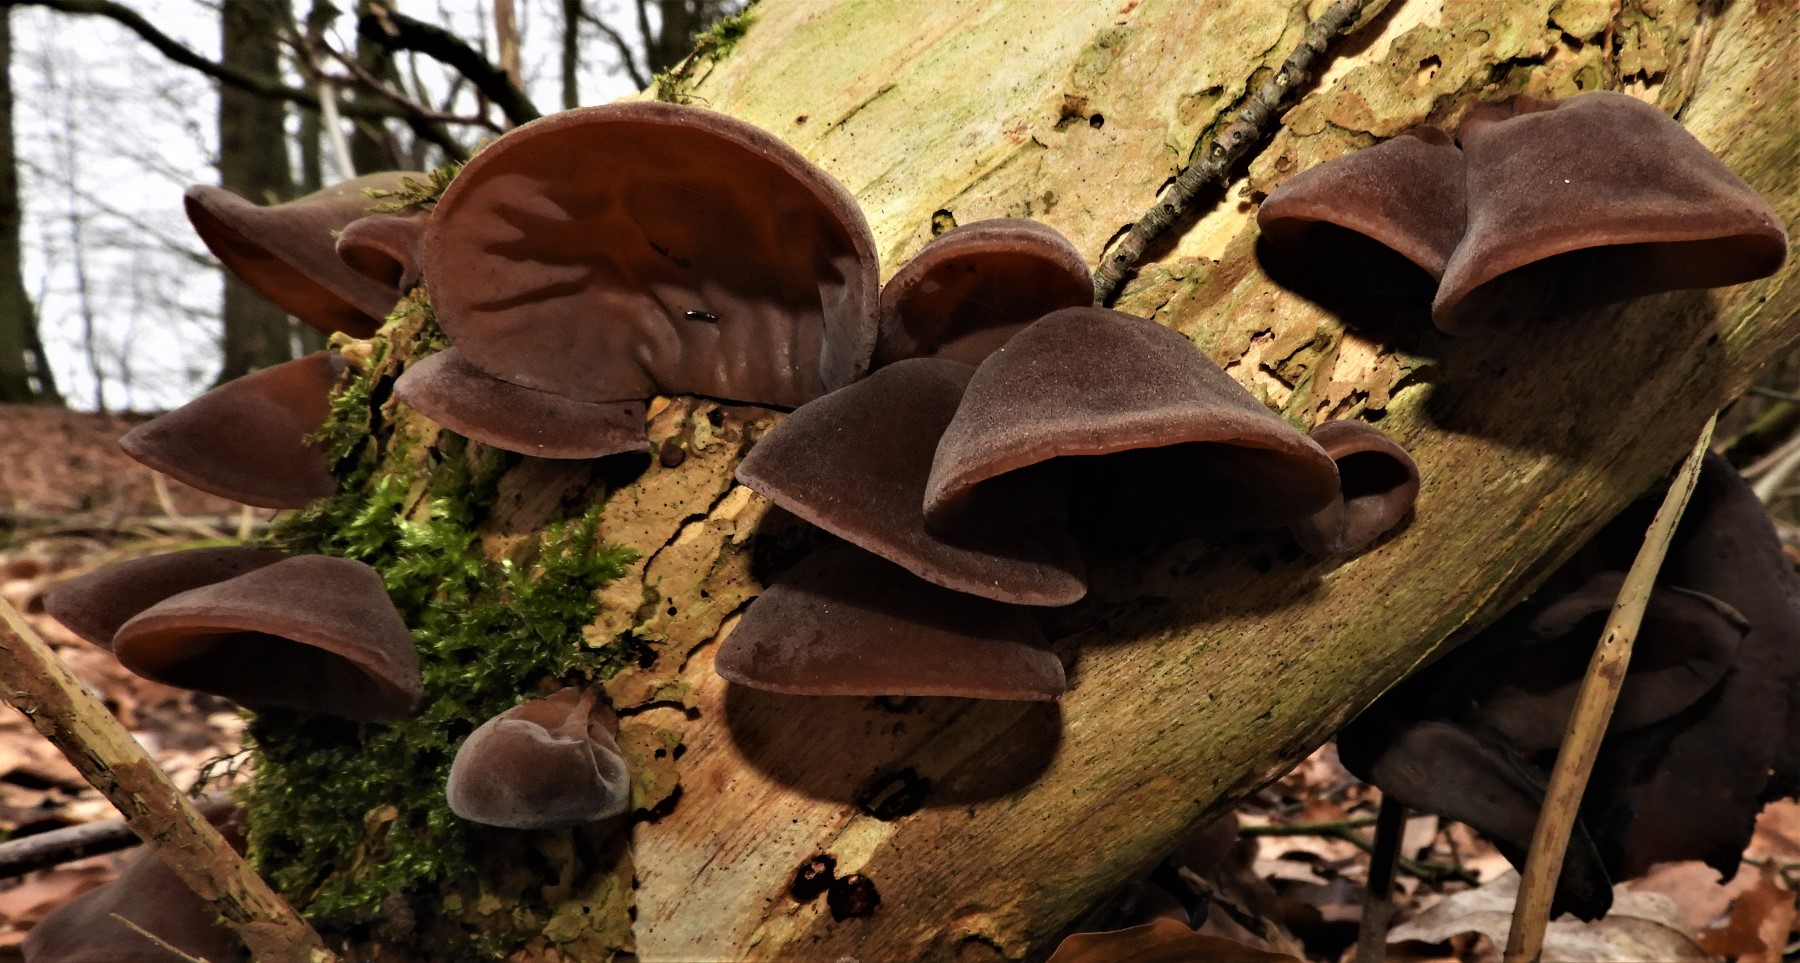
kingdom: Fungi
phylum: Basidiomycota
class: Agaricomycetes
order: Auriculariales
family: Auriculariaceae
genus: Auricularia
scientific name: Auricularia auricula-judae
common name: almindelig judasøre
